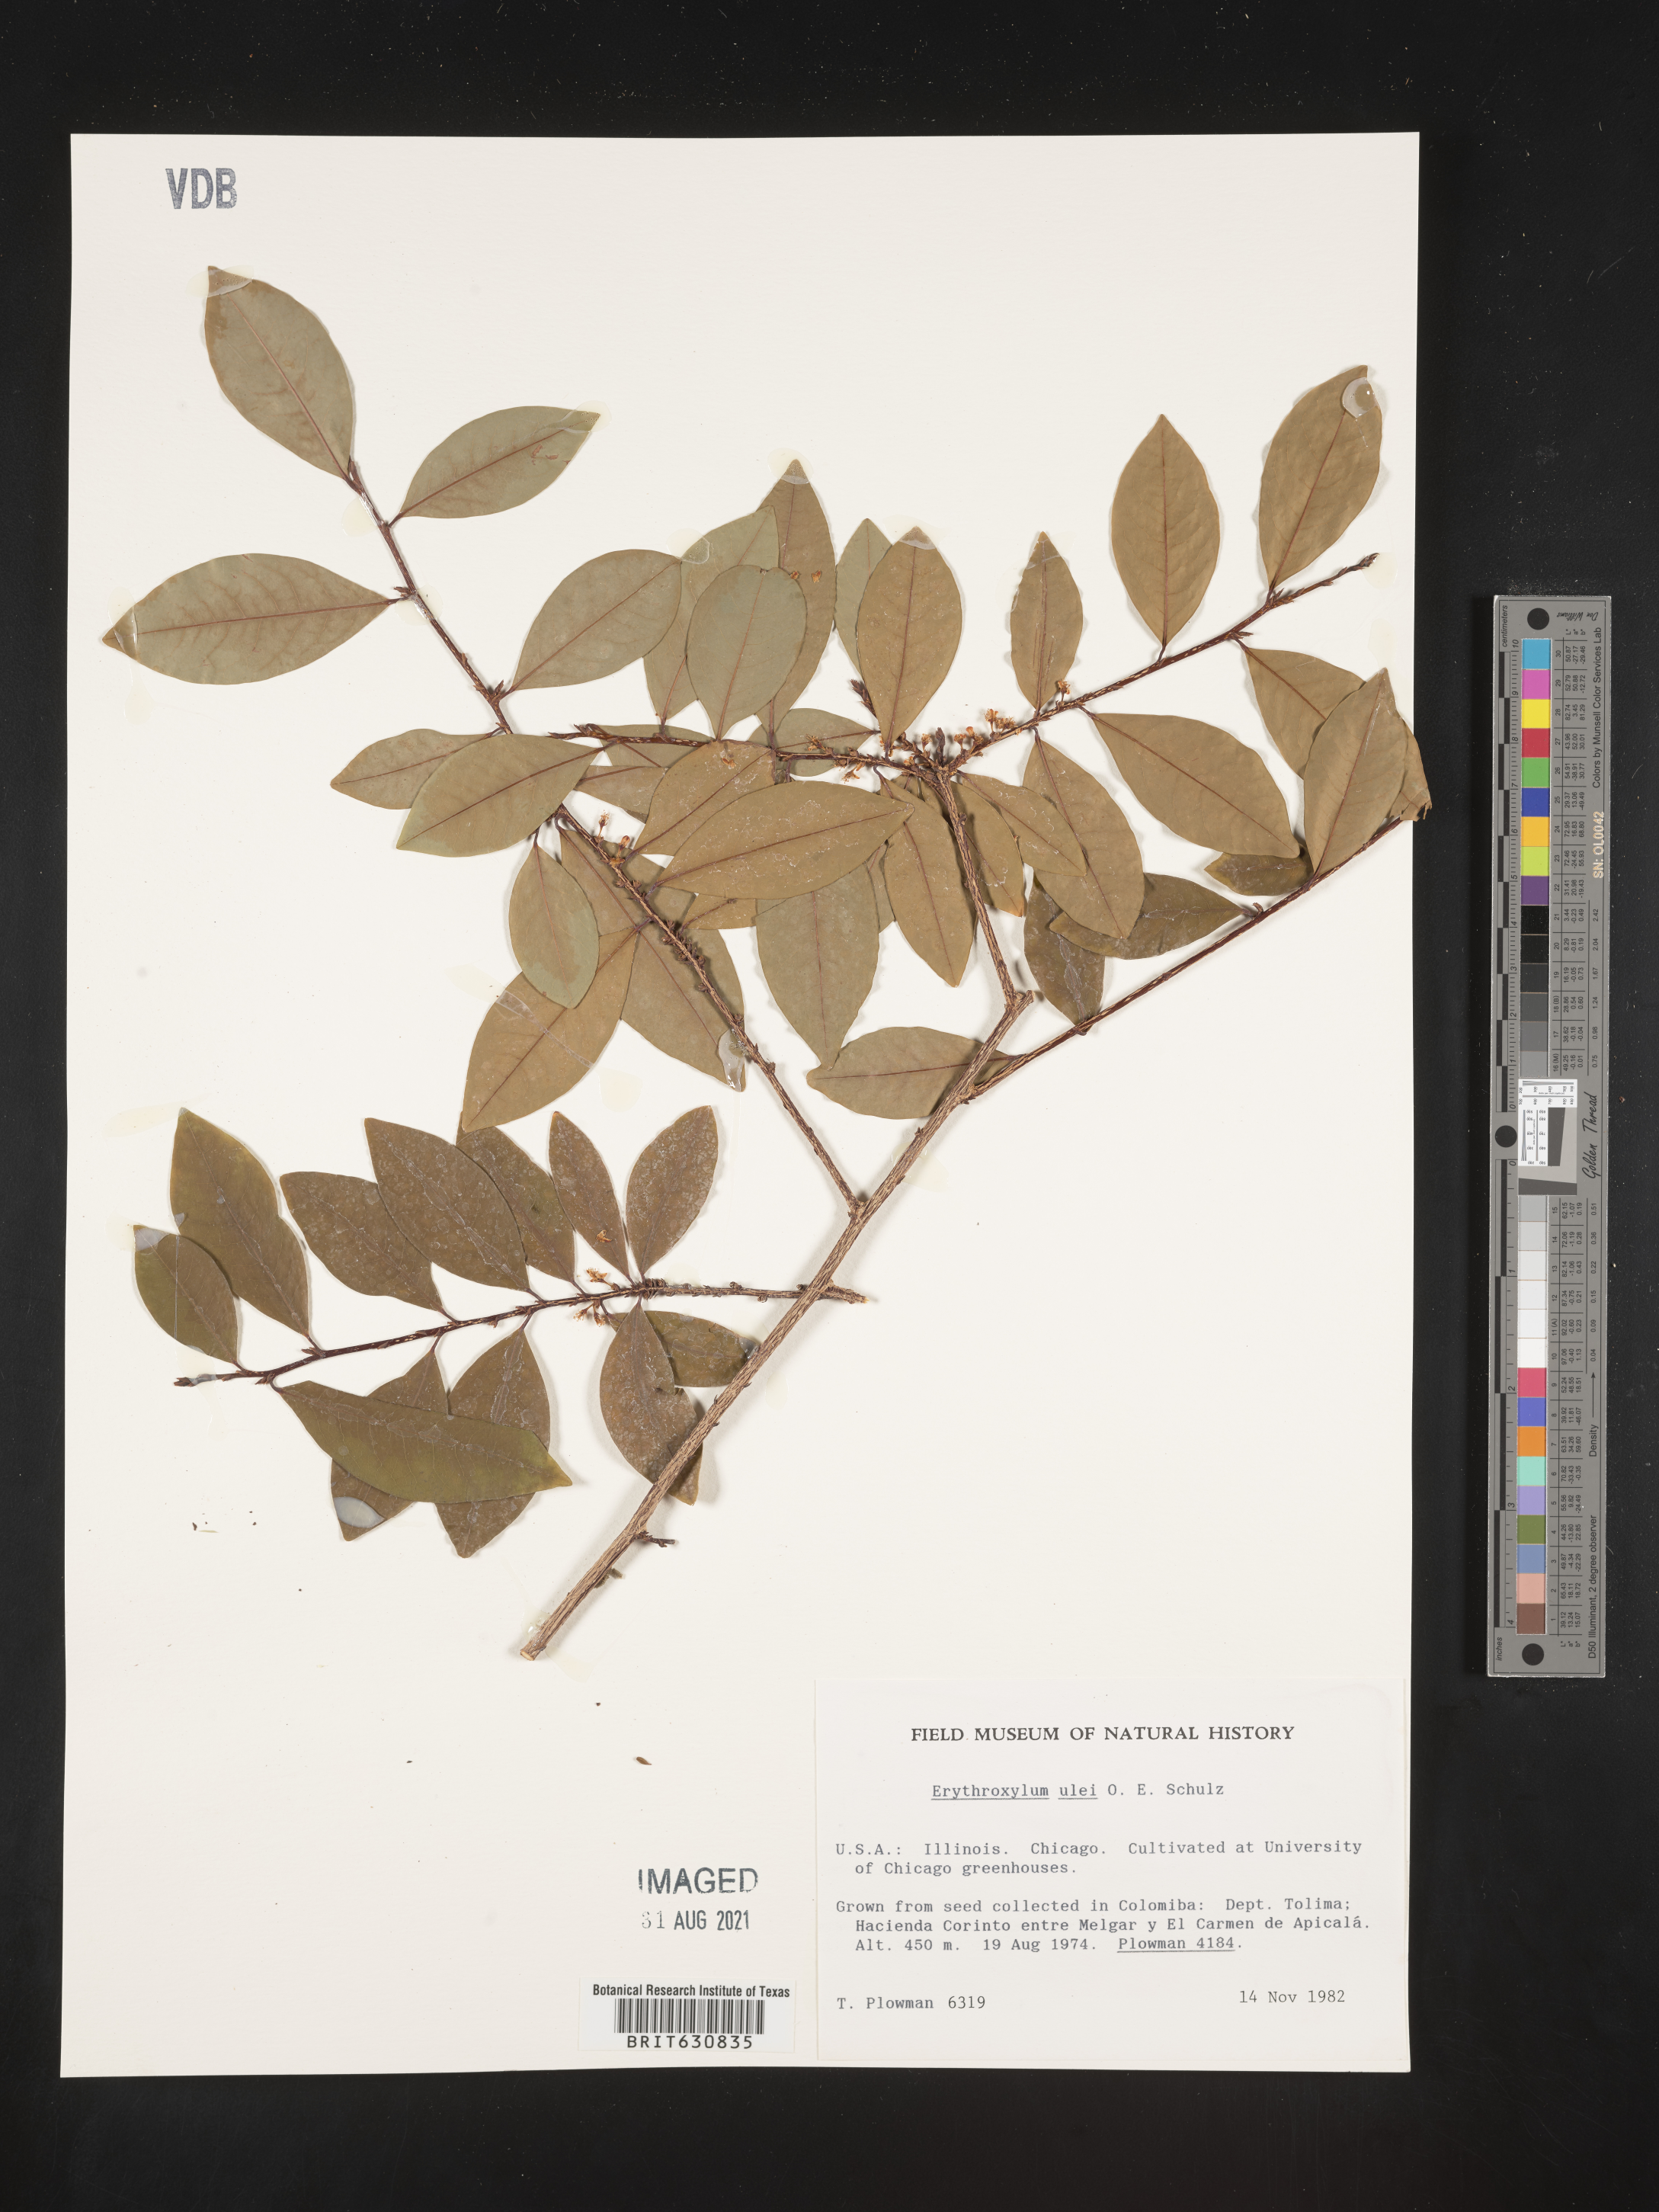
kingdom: Plantae
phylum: Tracheophyta
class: Magnoliopsida
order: Malpighiales
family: Erythroxylaceae
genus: Erythroxylum
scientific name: Erythroxylum
